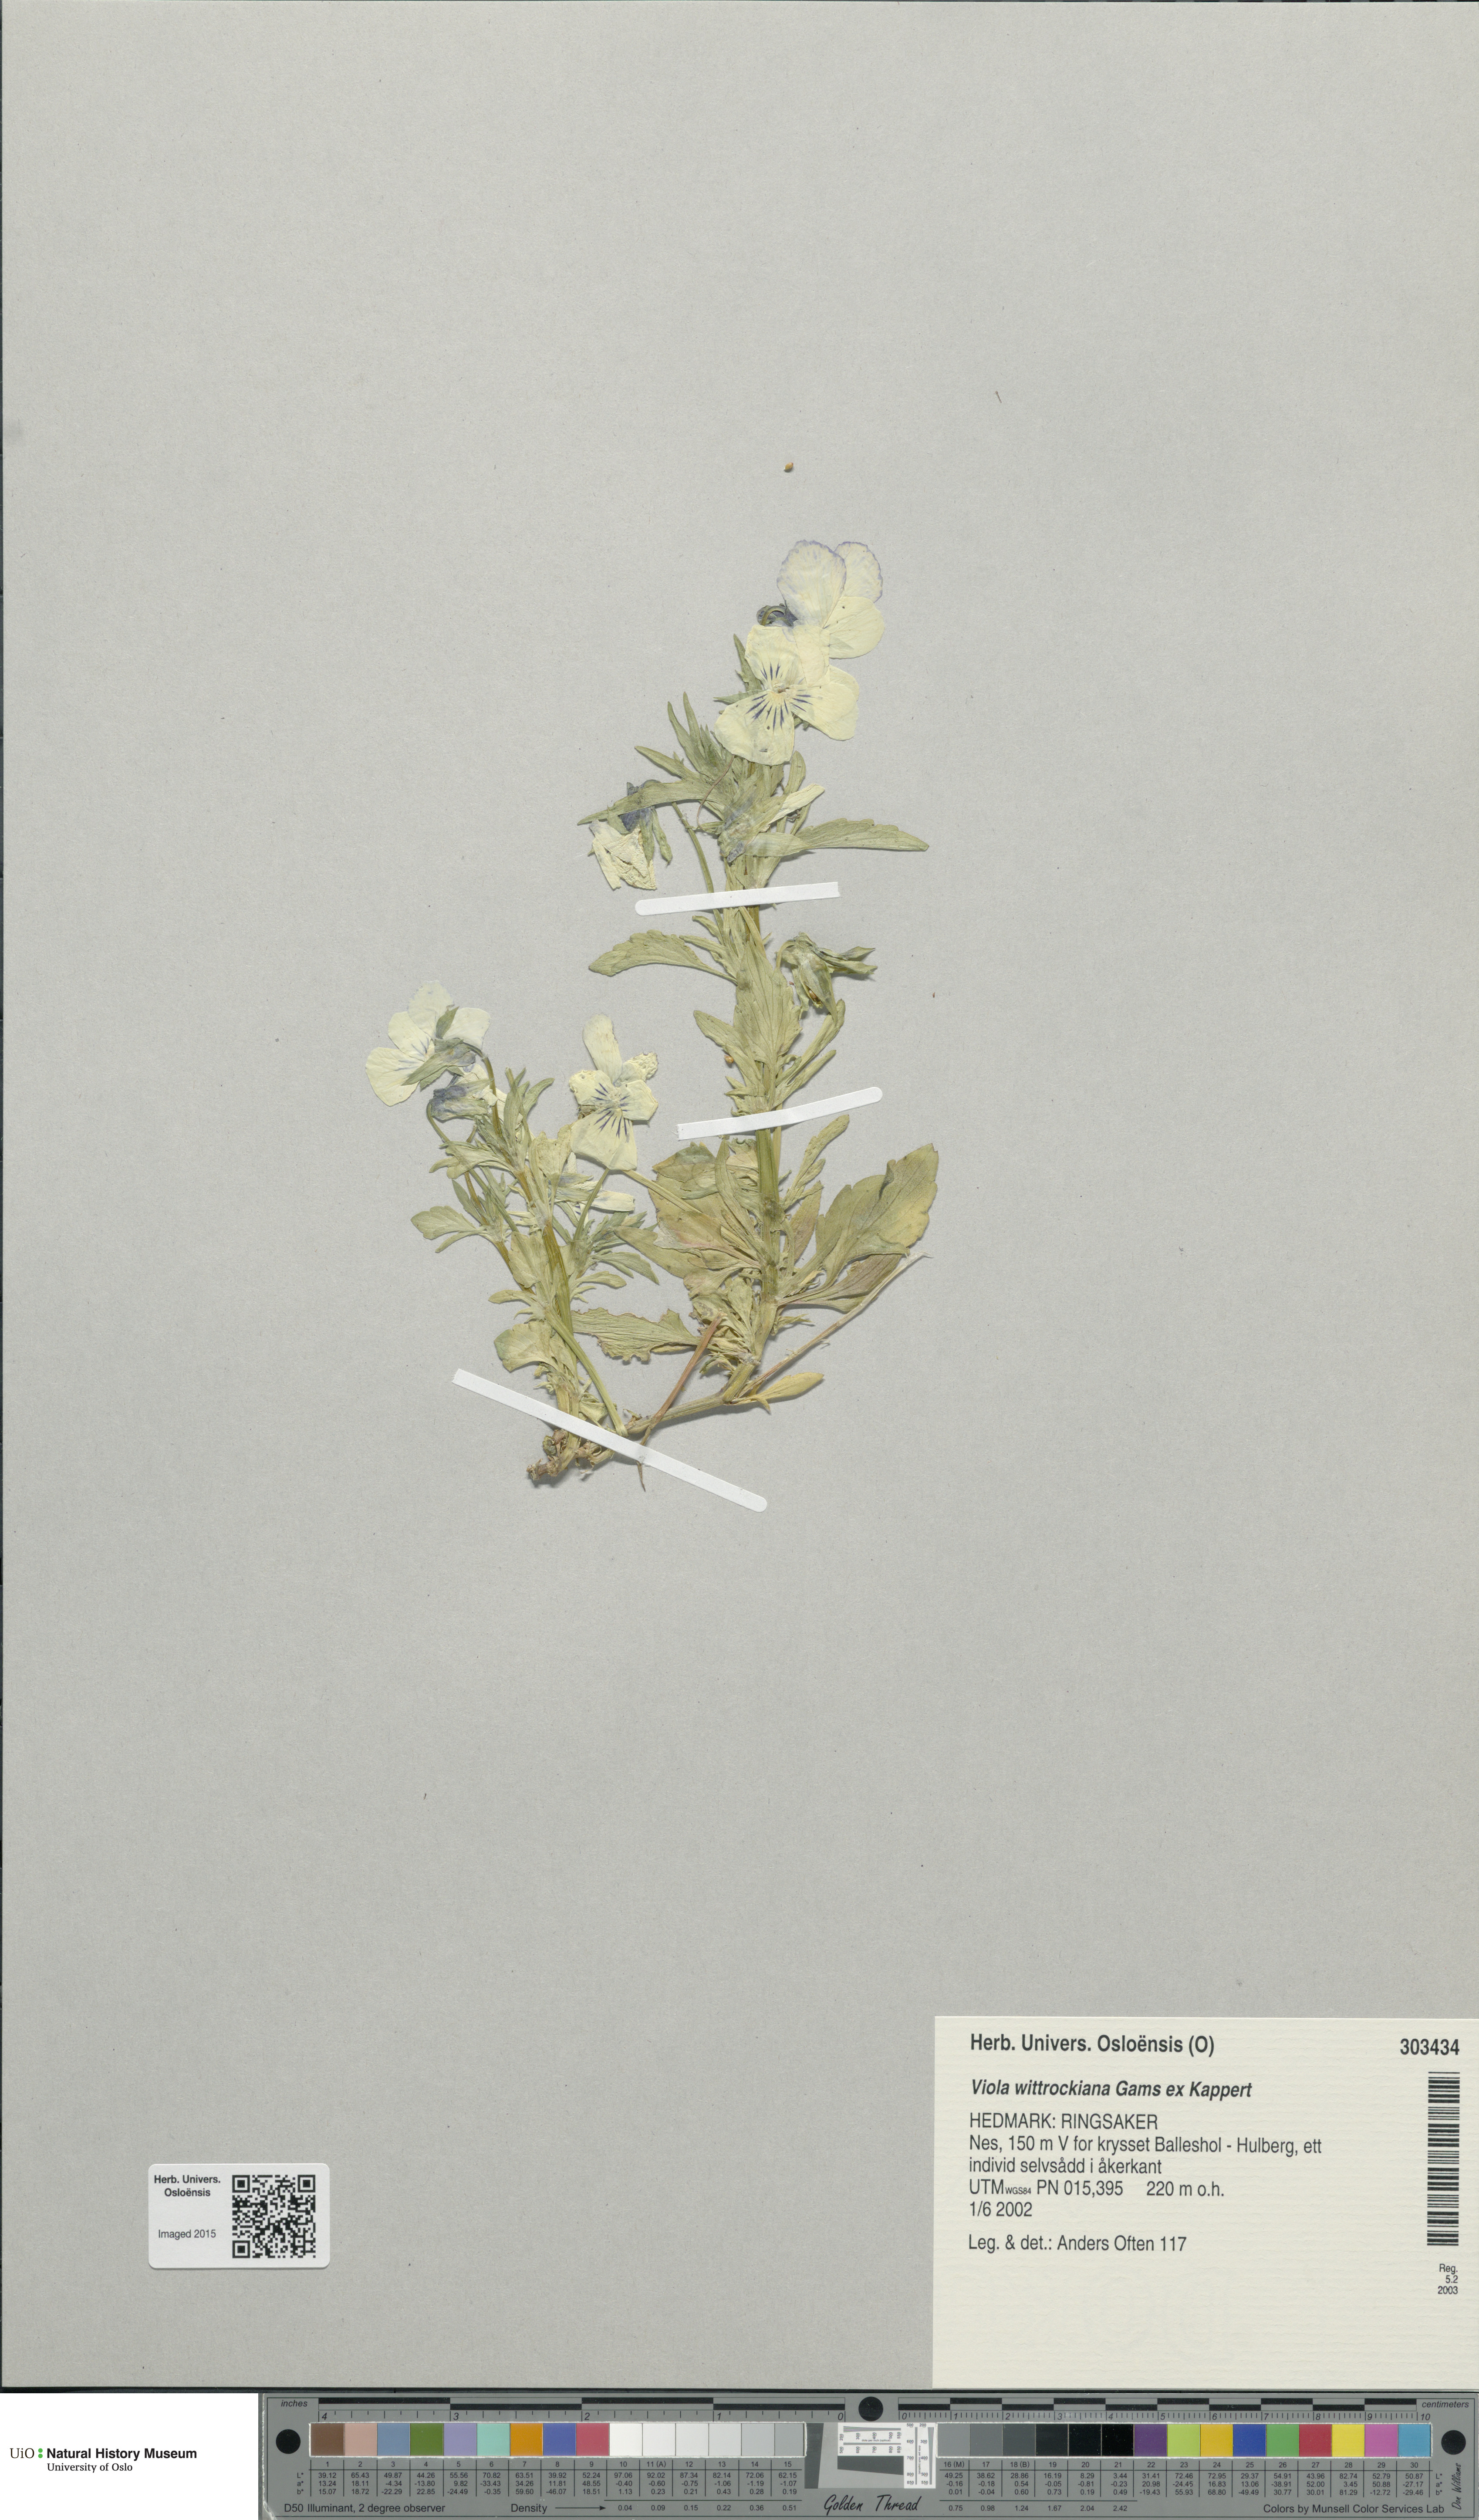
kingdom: Plantae
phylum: Tracheophyta
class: Magnoliopsida
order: Malpighiales
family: Violaceae
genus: Viola
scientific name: Viola wittrockiana
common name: Garden pansy
